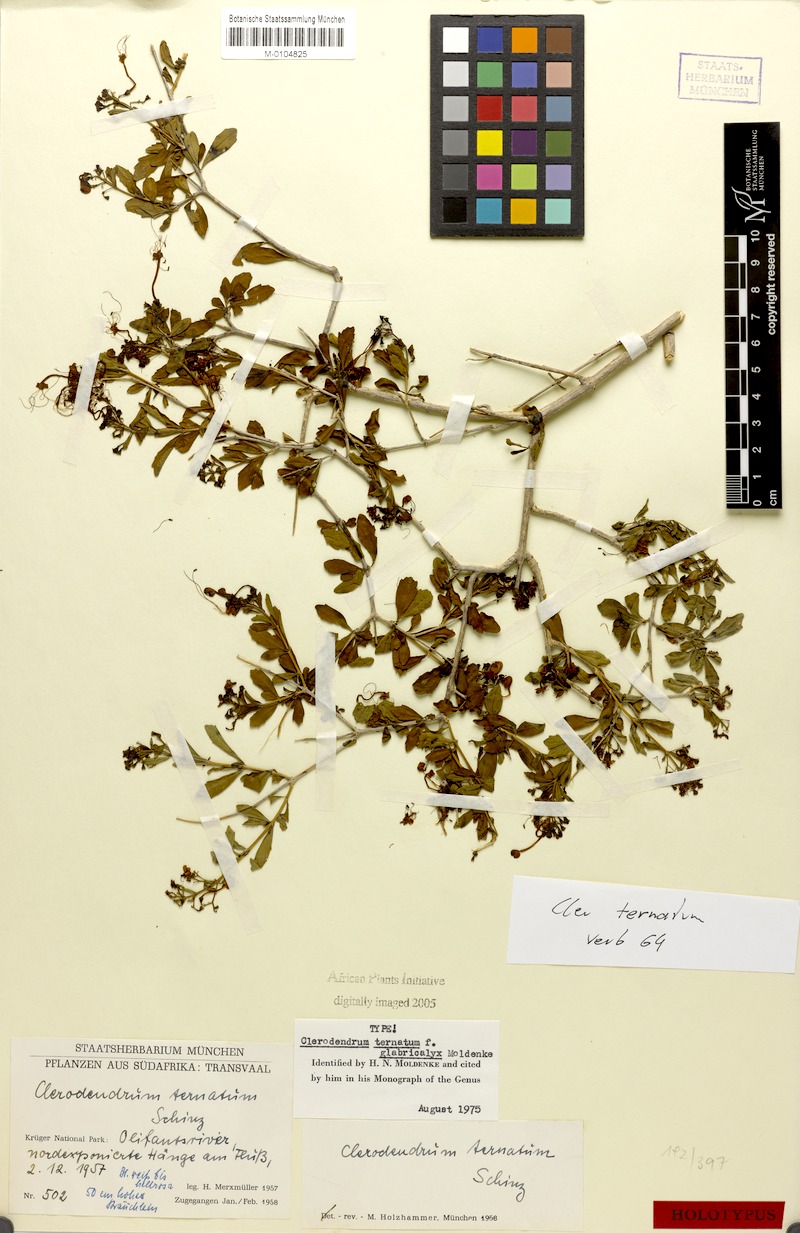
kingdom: Plantae
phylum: Tracheophyta
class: Magnoliopsida
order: Lamiales
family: Lamiaceae
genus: Clerodendrum
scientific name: Clerodendrum ternatum
